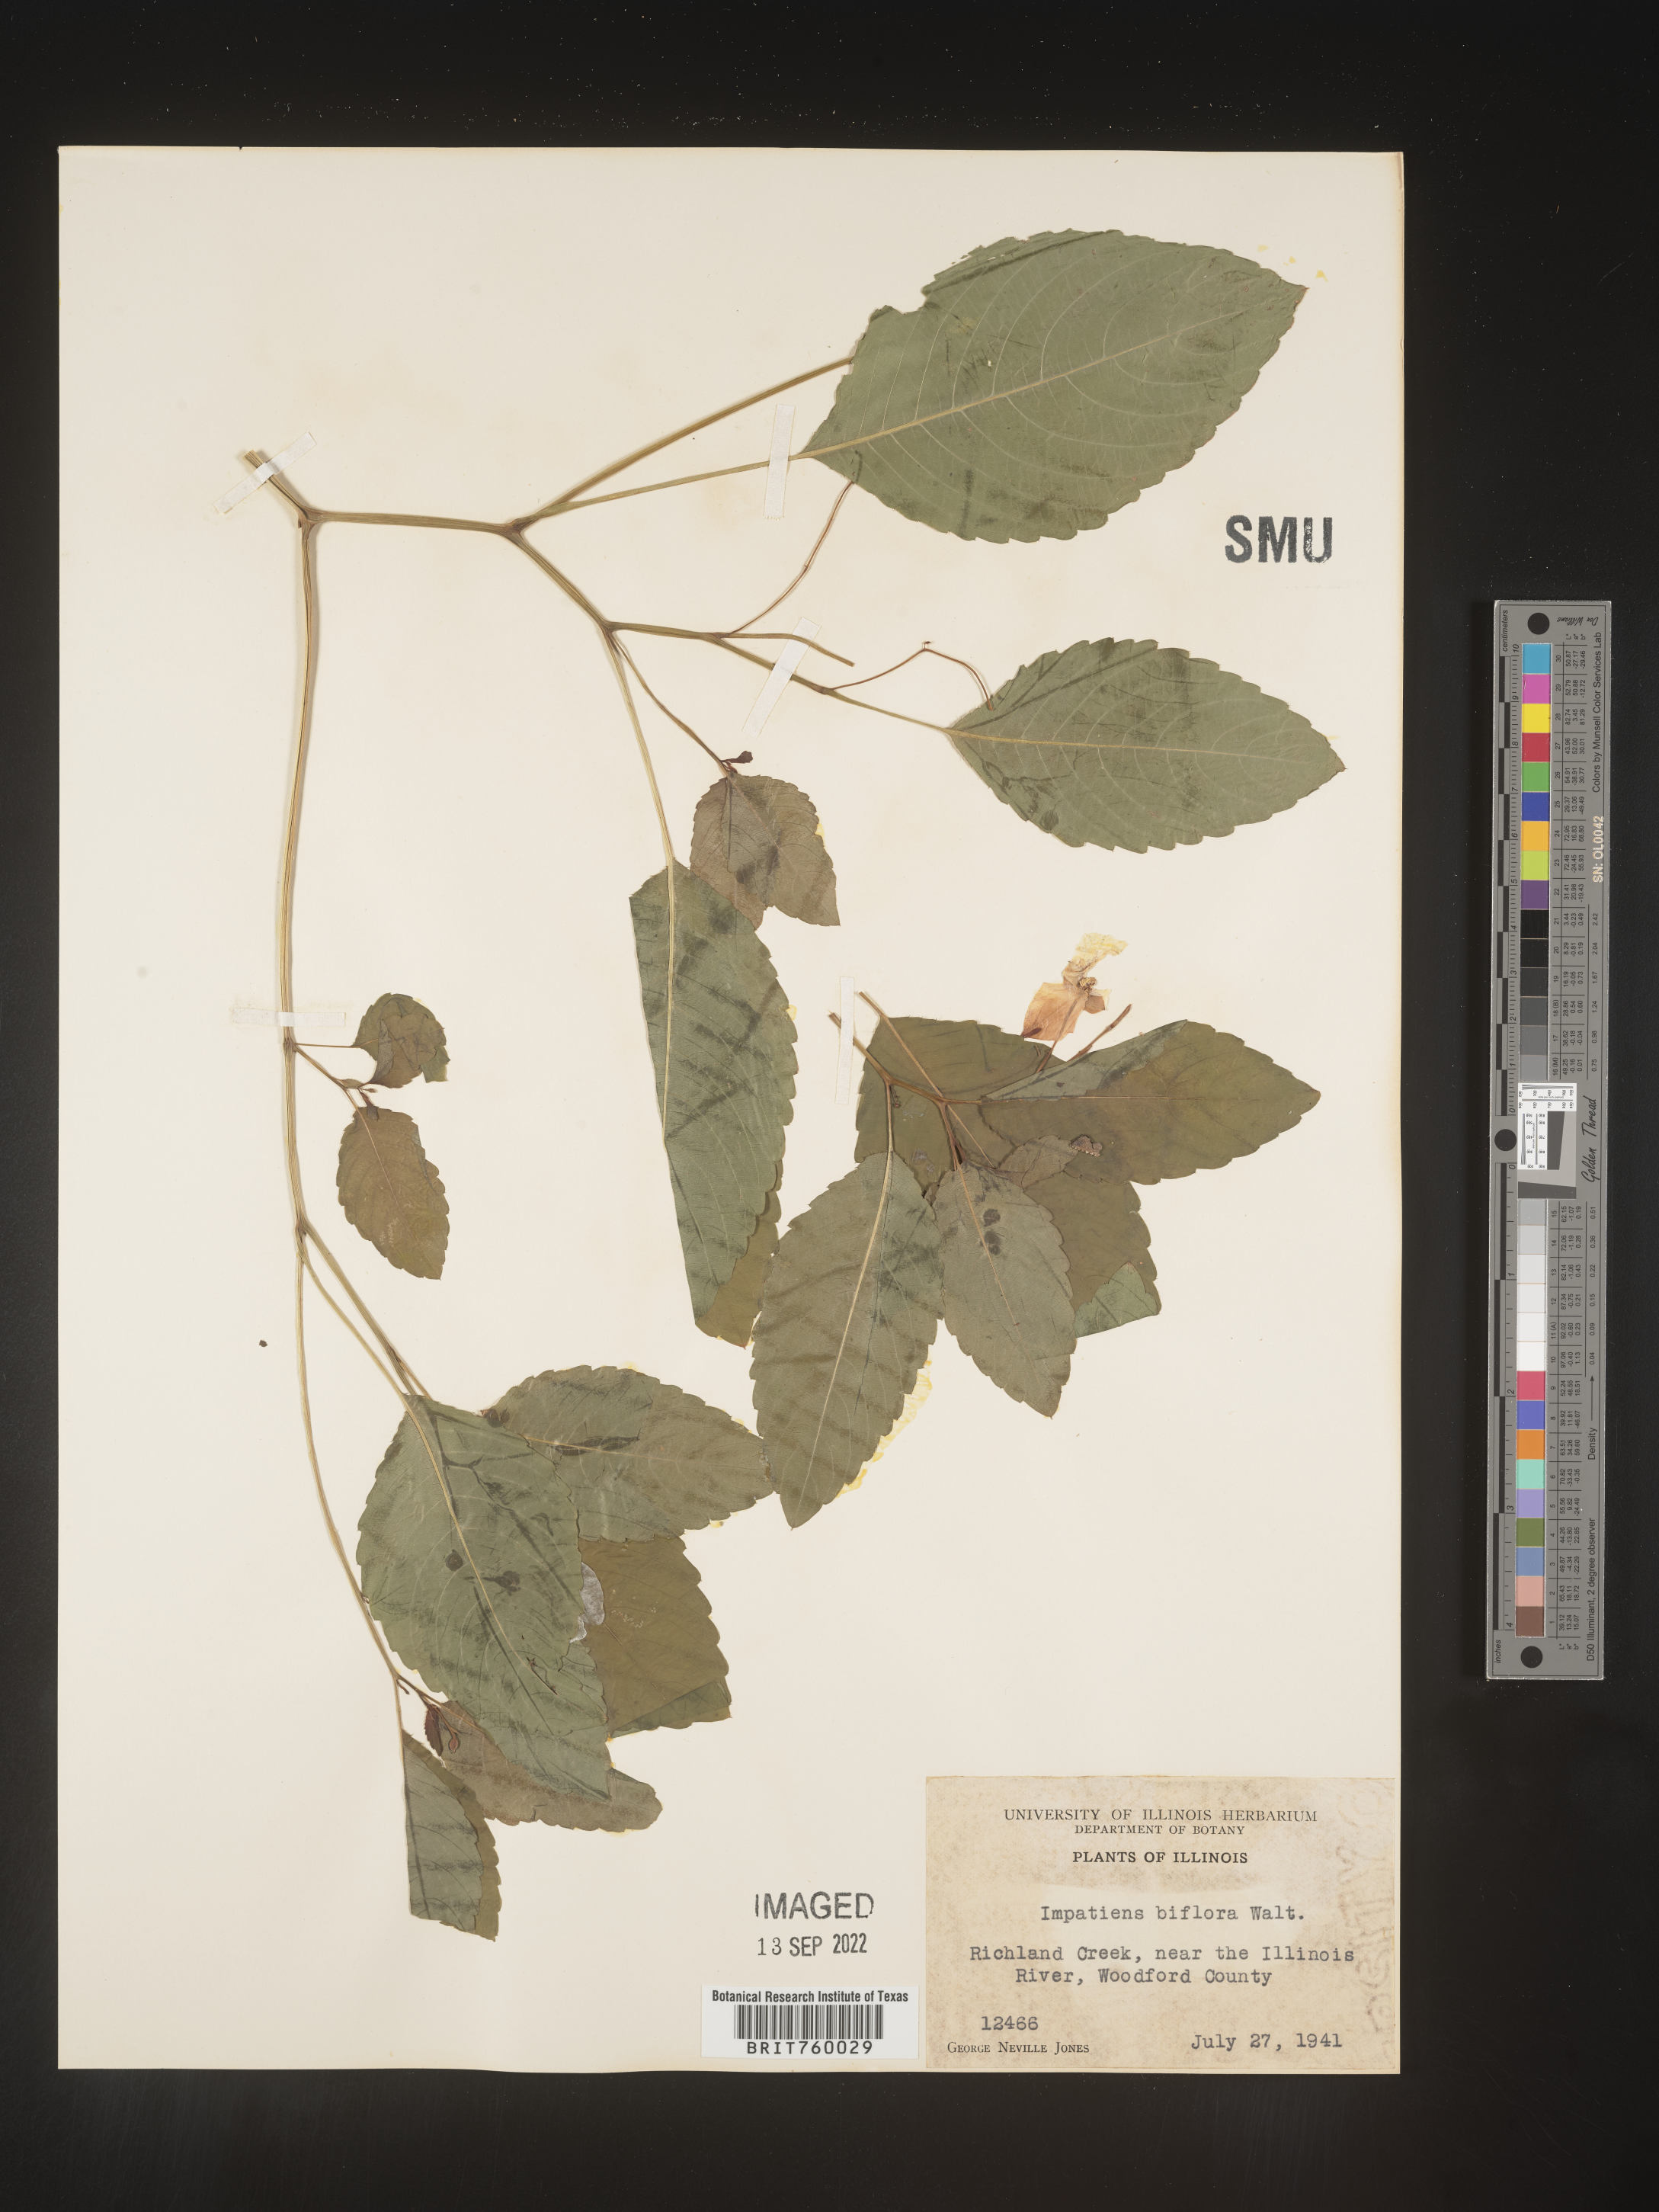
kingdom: Plantae
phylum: Tracheophyta
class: Magnoliopsida
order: Ericales
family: Balsaminaceae
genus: Impatiens
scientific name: Impatiens capensis
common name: Orange balsam
